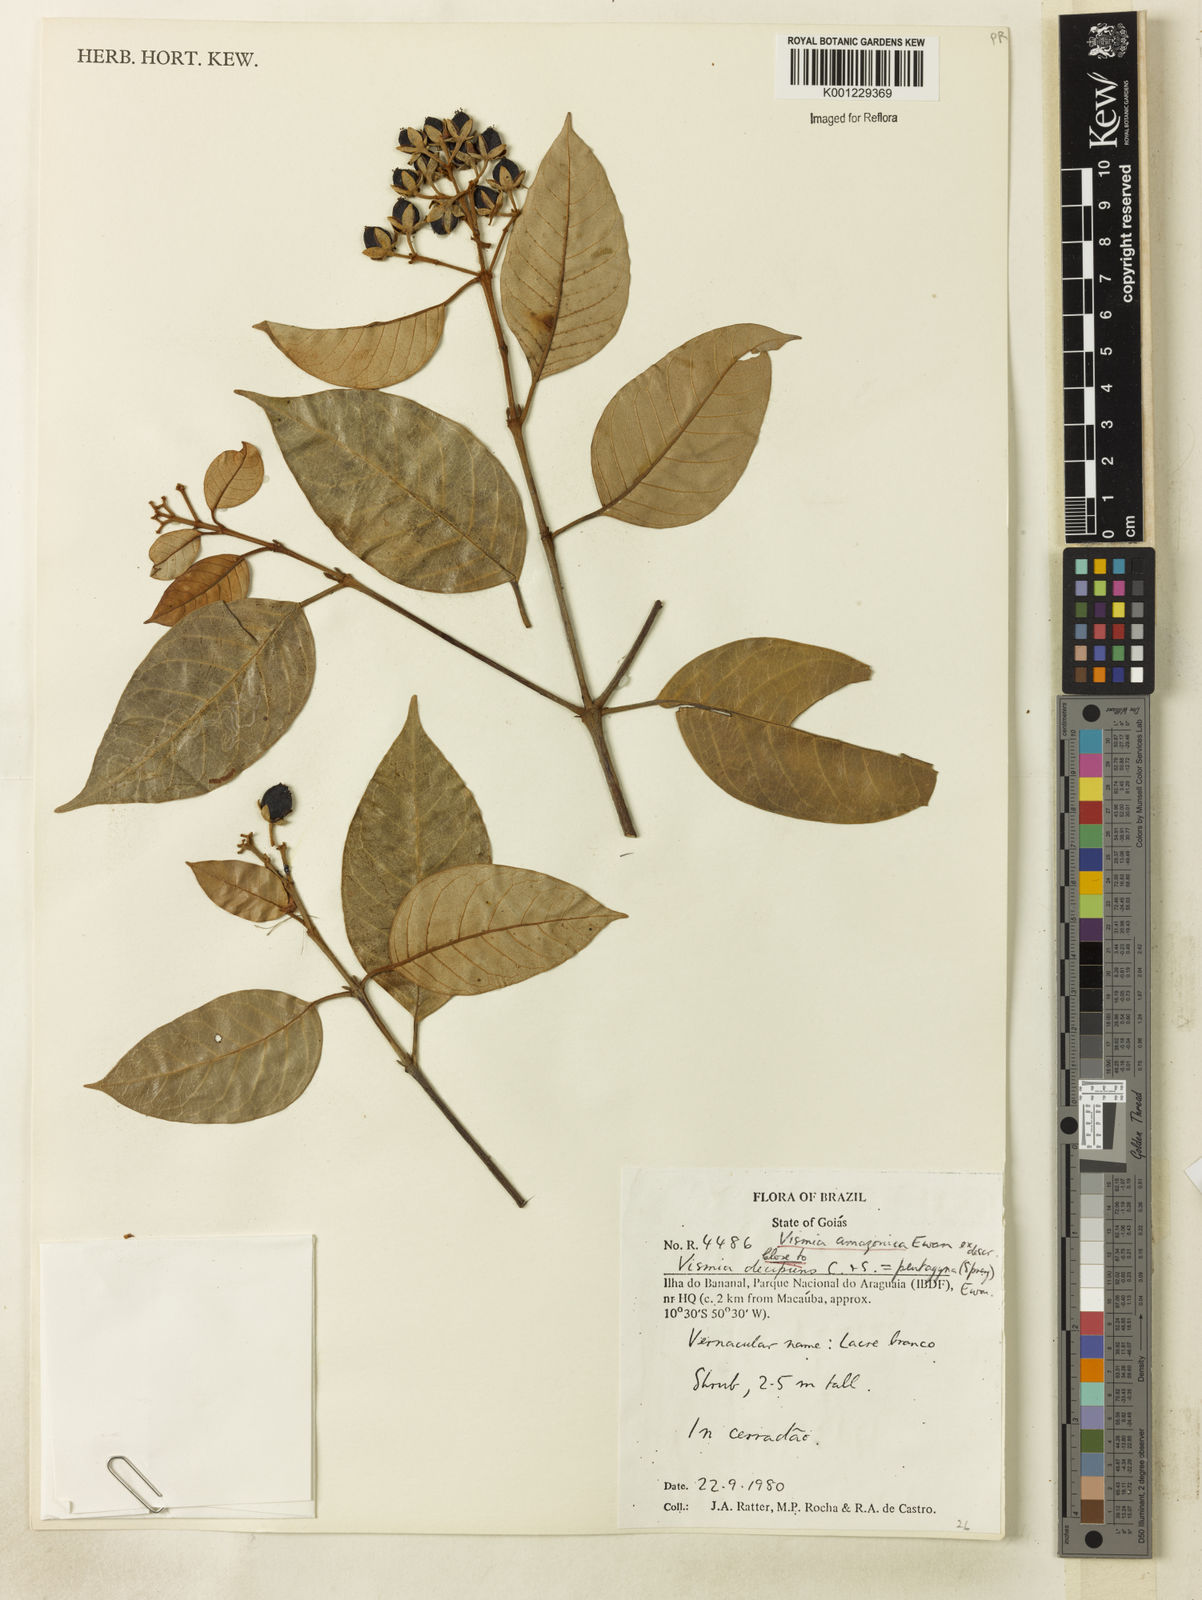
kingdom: Plantae
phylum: Tracheophyta
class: Magnoliopsida
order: Malpighiales
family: Hypericaceae
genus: Vismia
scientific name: Vismia gracilis
